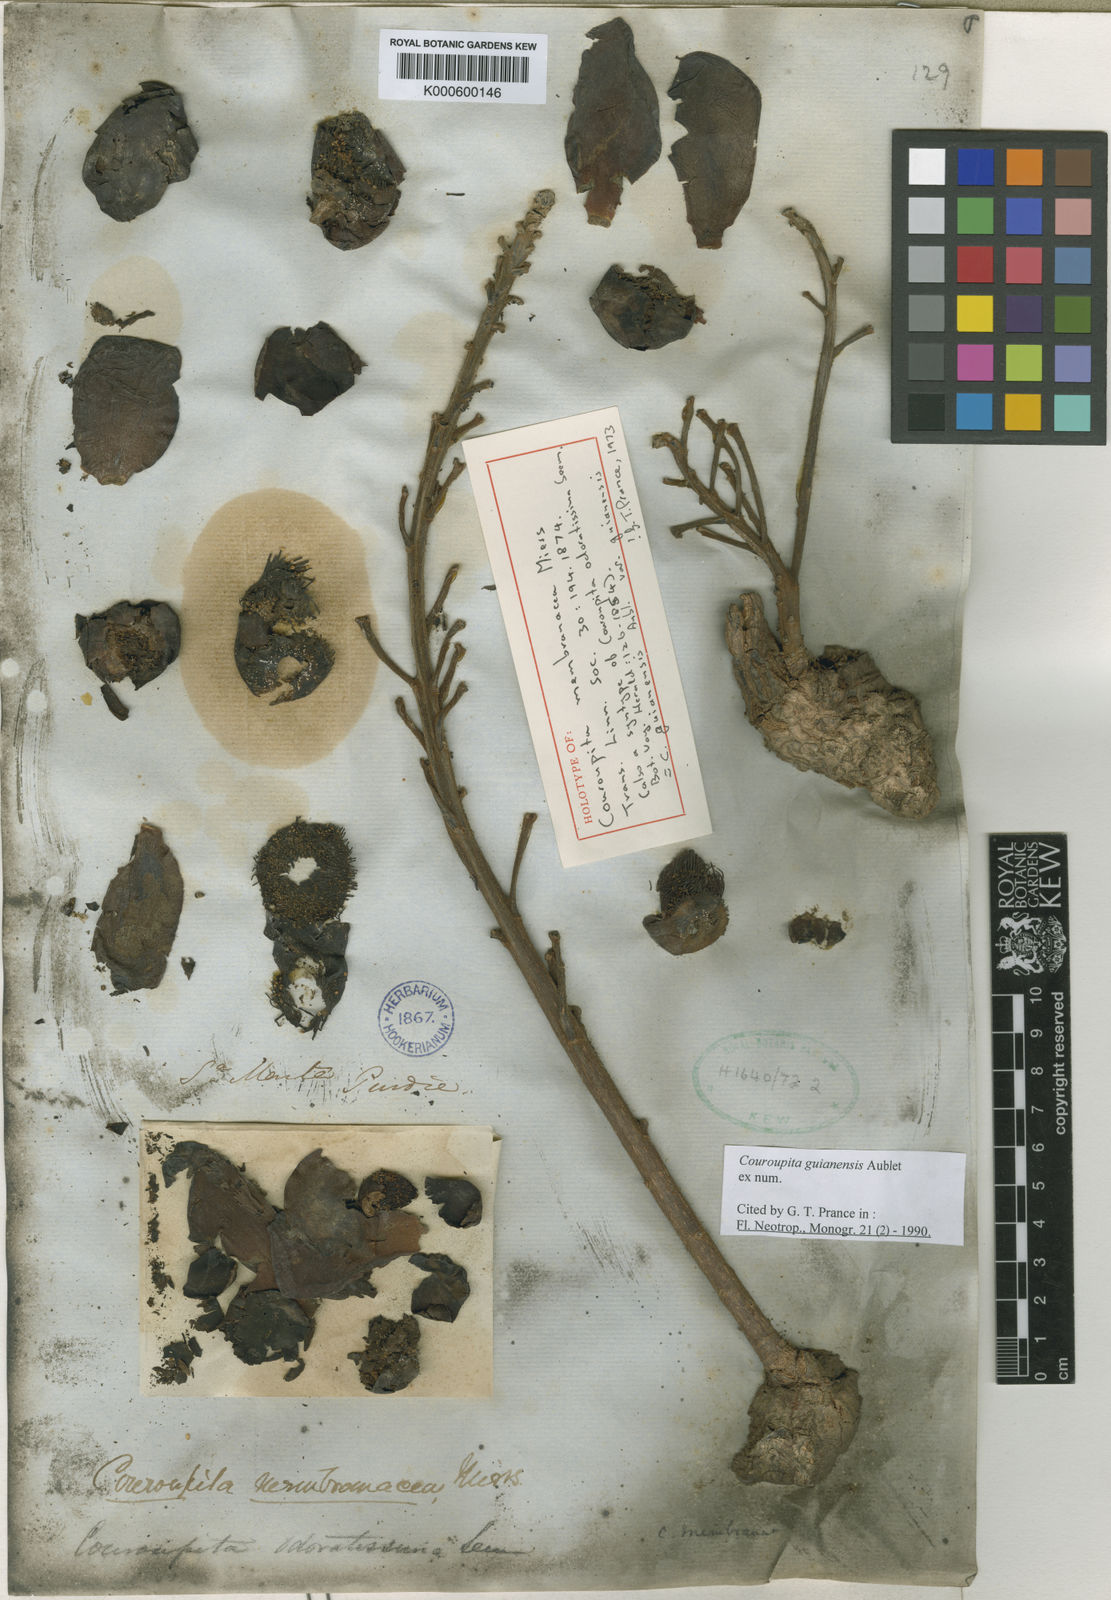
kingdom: Plantae
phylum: Tracheophyta
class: Magnoliopsida
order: Ericales
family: Lecythidaceae
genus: Couroupita
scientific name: Couroupita guianensis
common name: Cannonball tree
